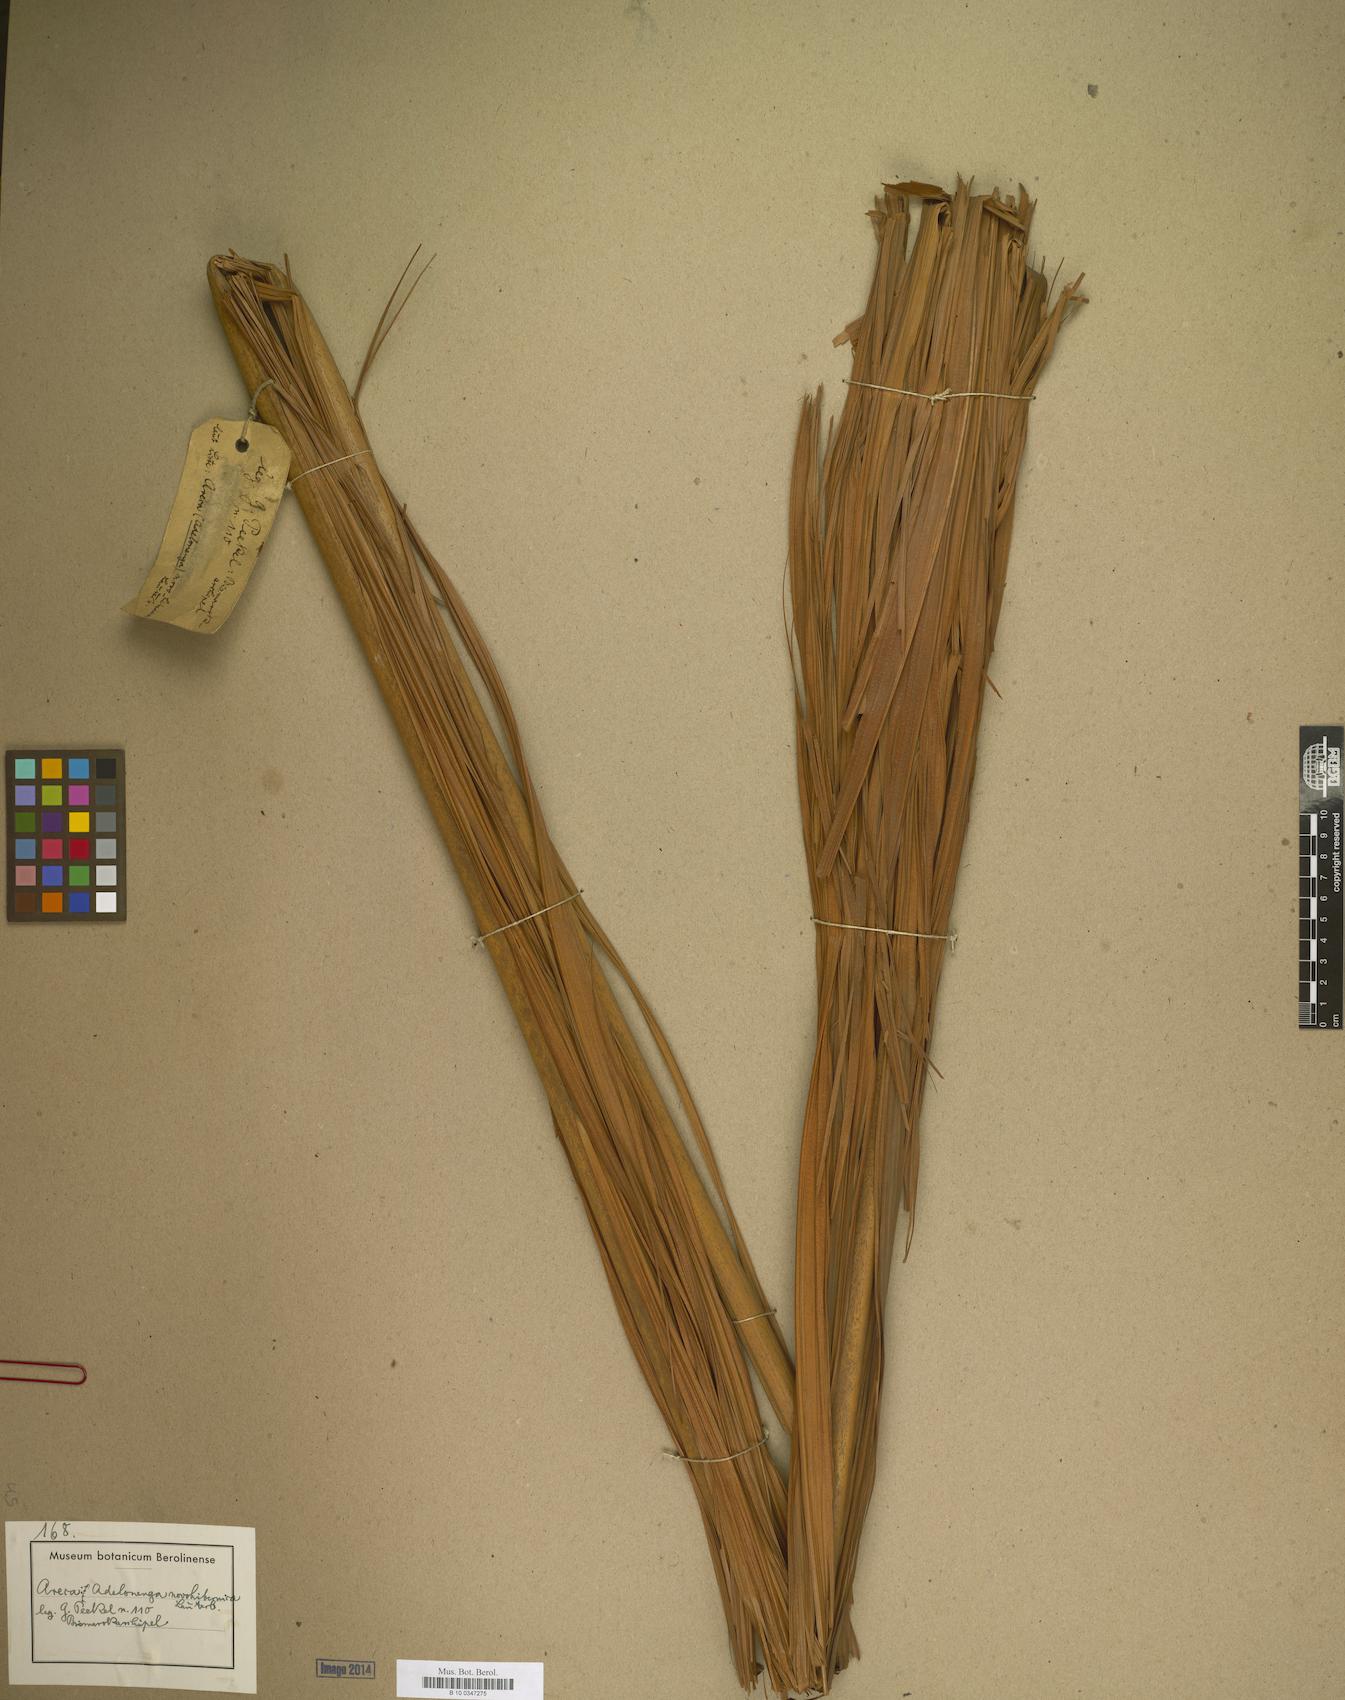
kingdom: Plantae
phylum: Tracheophyta
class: Liliopsida
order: Arecales
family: Arecaceae
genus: Adelonenga
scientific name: Adelonenga
